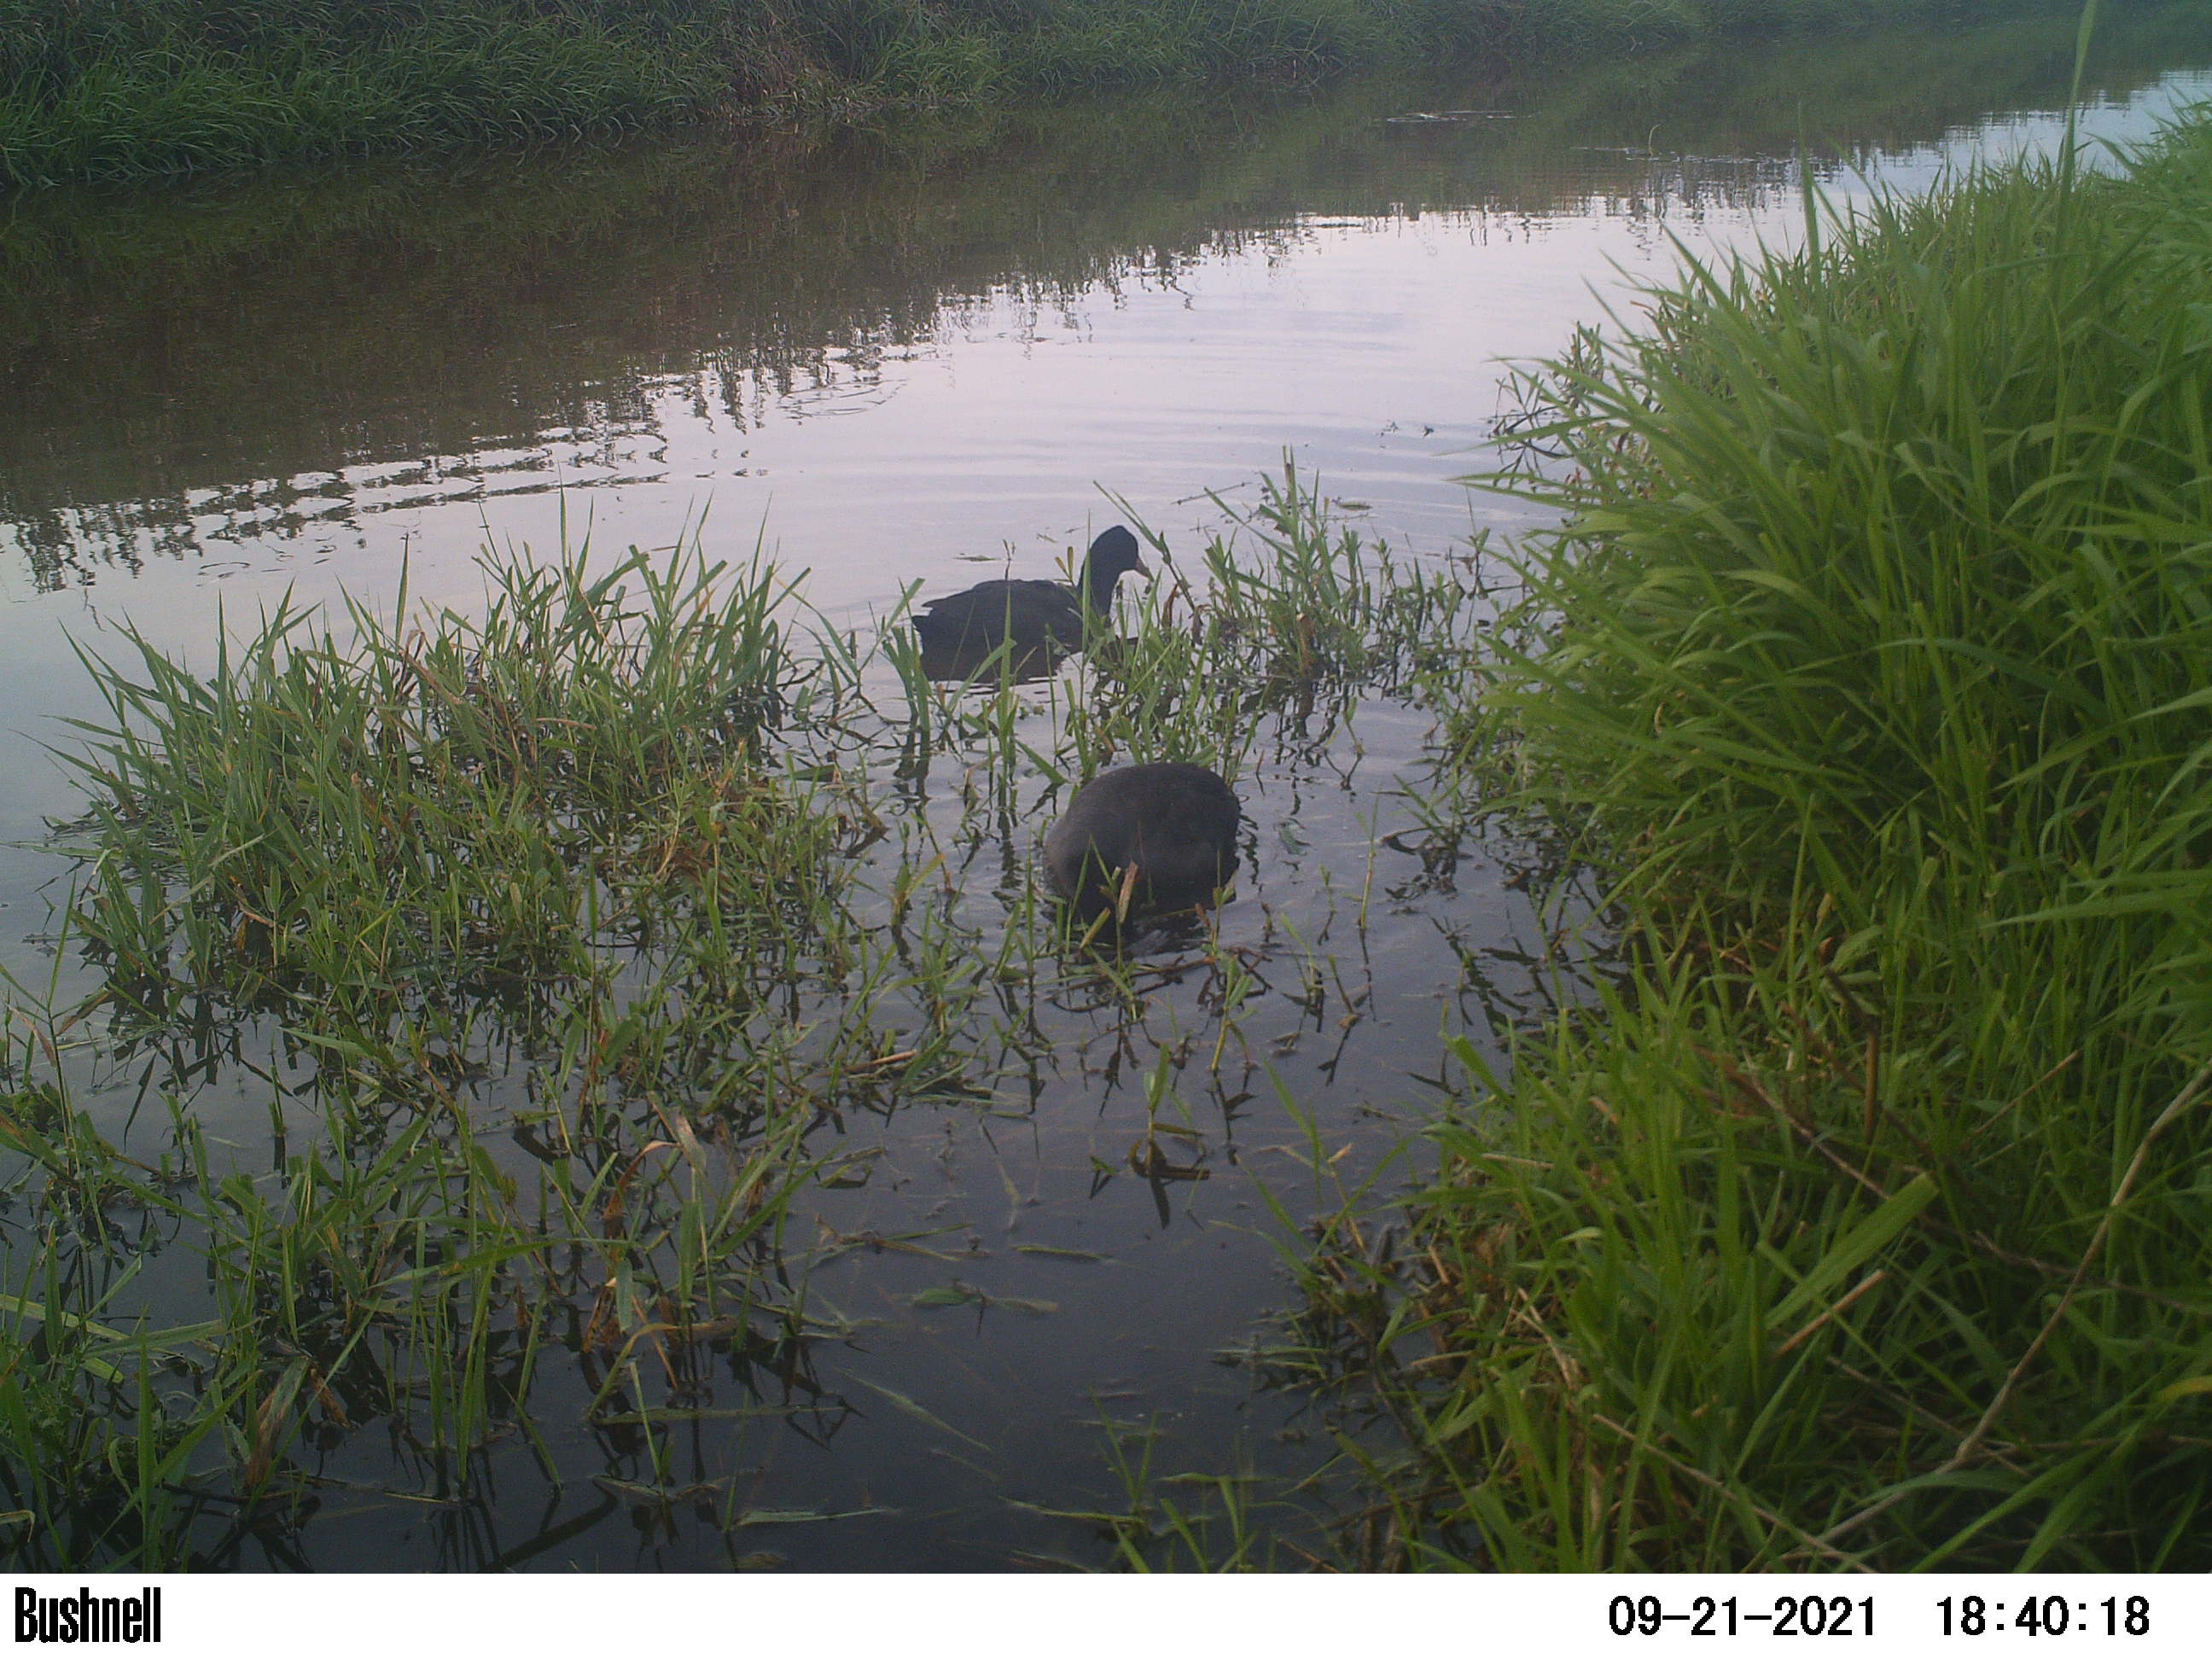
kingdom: Animalia
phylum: Chordata
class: Aves
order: Gruiformes
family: Rallidae
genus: Fulica
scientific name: Fulica atra
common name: Eurasian coot
